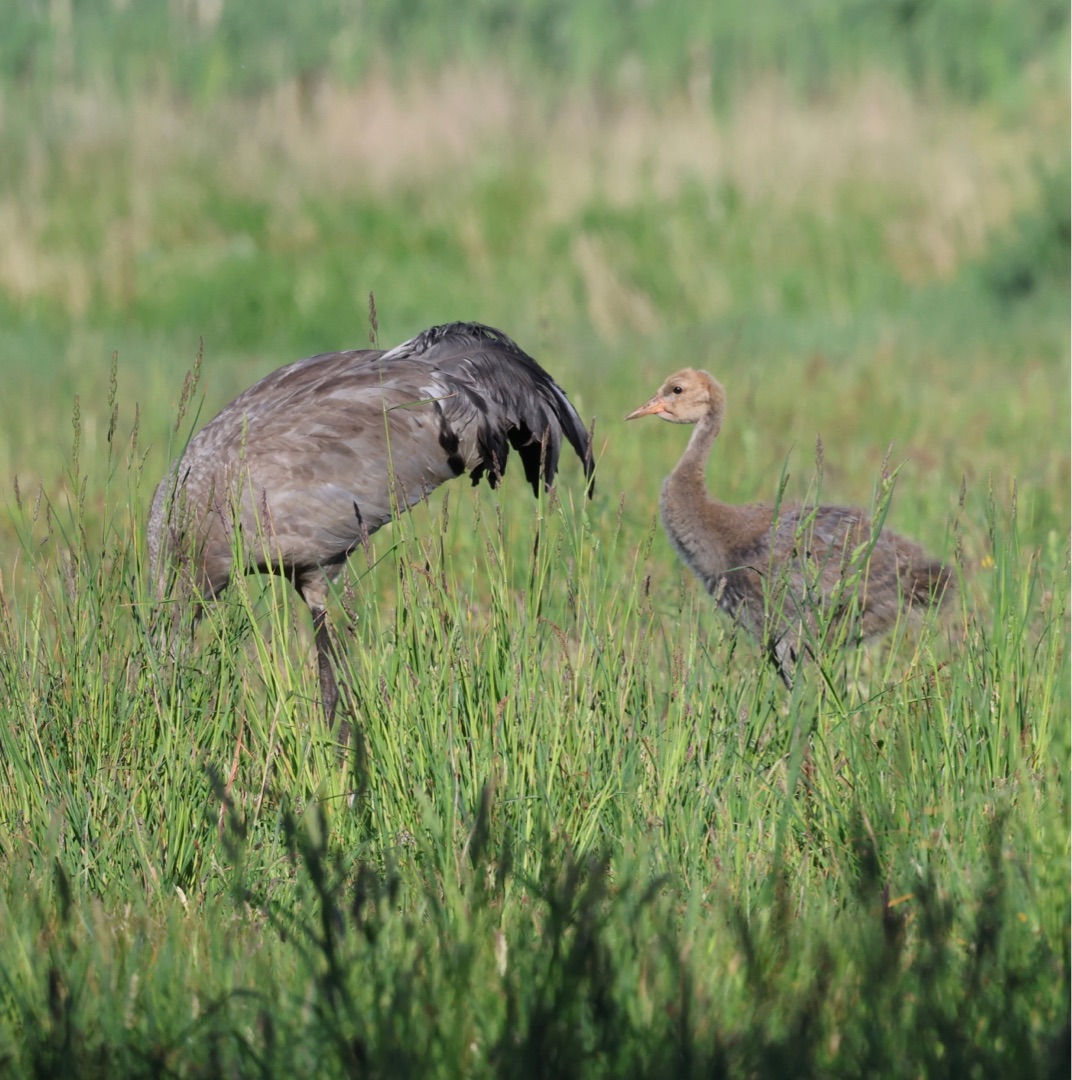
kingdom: Animalia
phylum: Chordata
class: Aves
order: Gruiformes
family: Gruidae
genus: Grus
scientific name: Grus grus
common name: Trane
